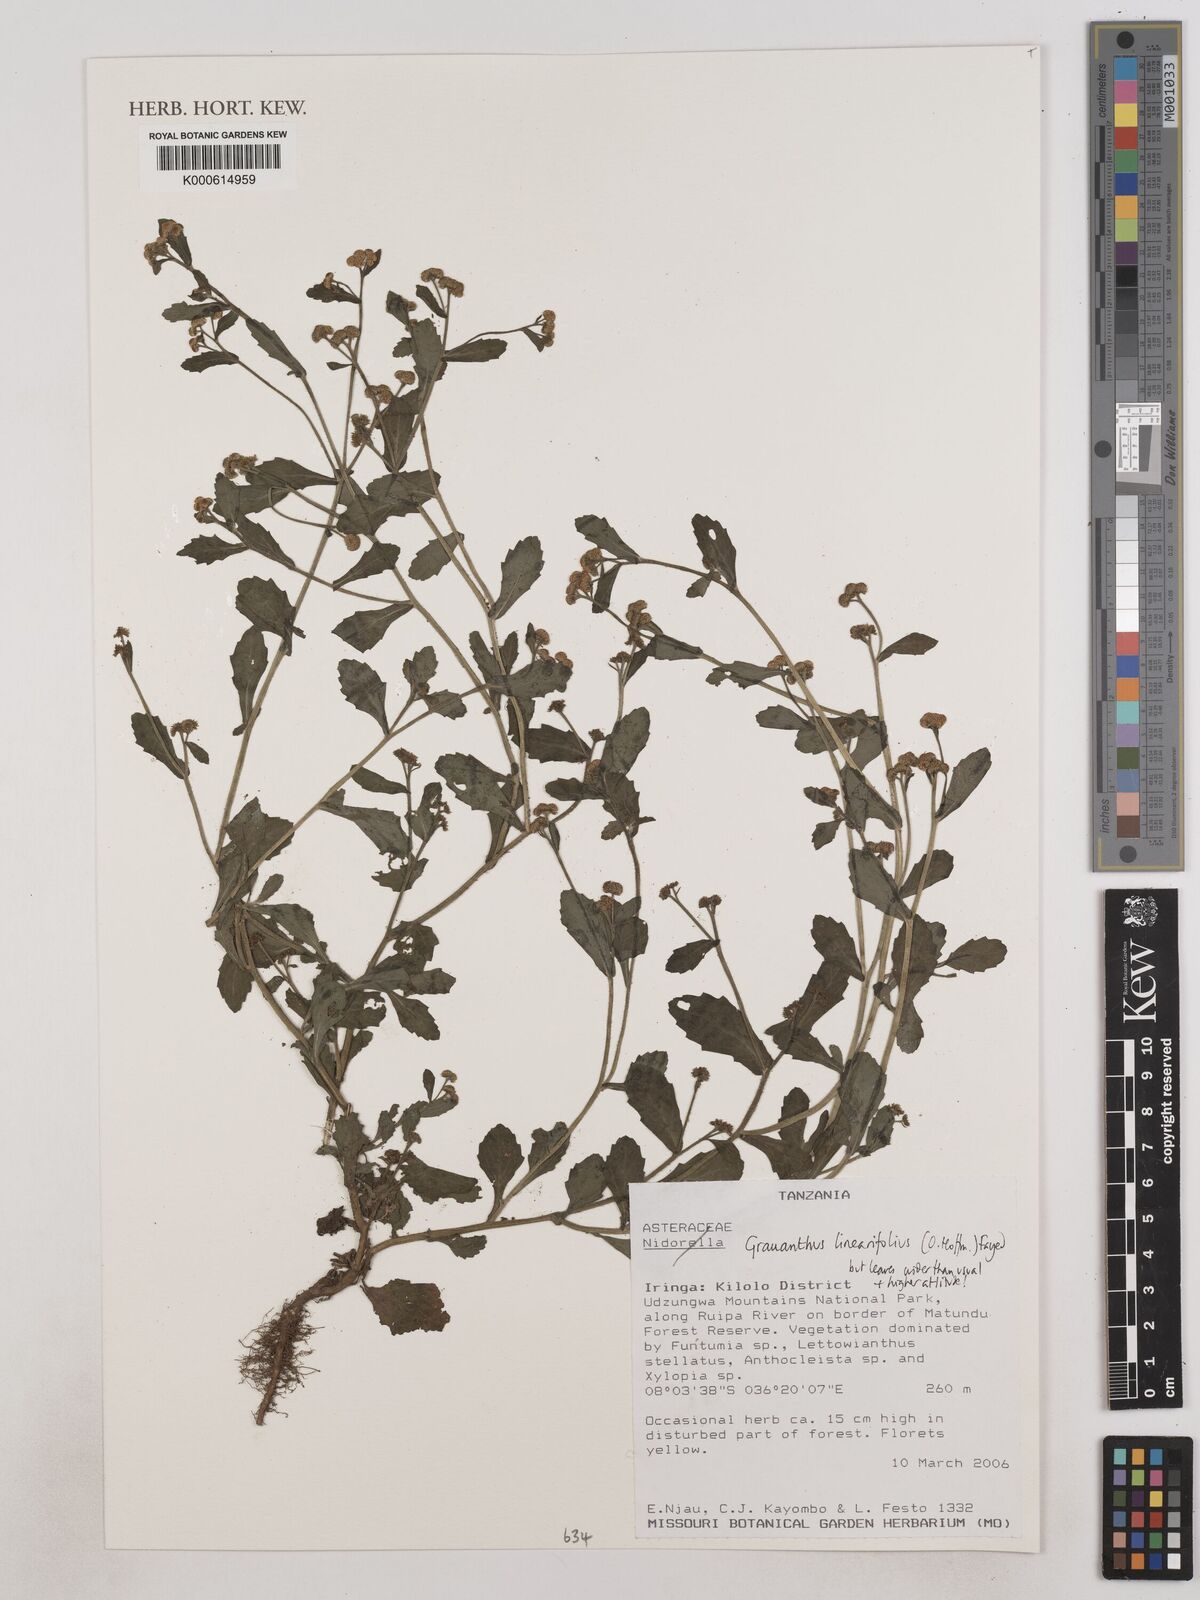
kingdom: Plantae
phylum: Tracheophyta
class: Magnoliopsida
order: Asterales
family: Asteraceae
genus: Grauanthus
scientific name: Grauanthus linearifolius
